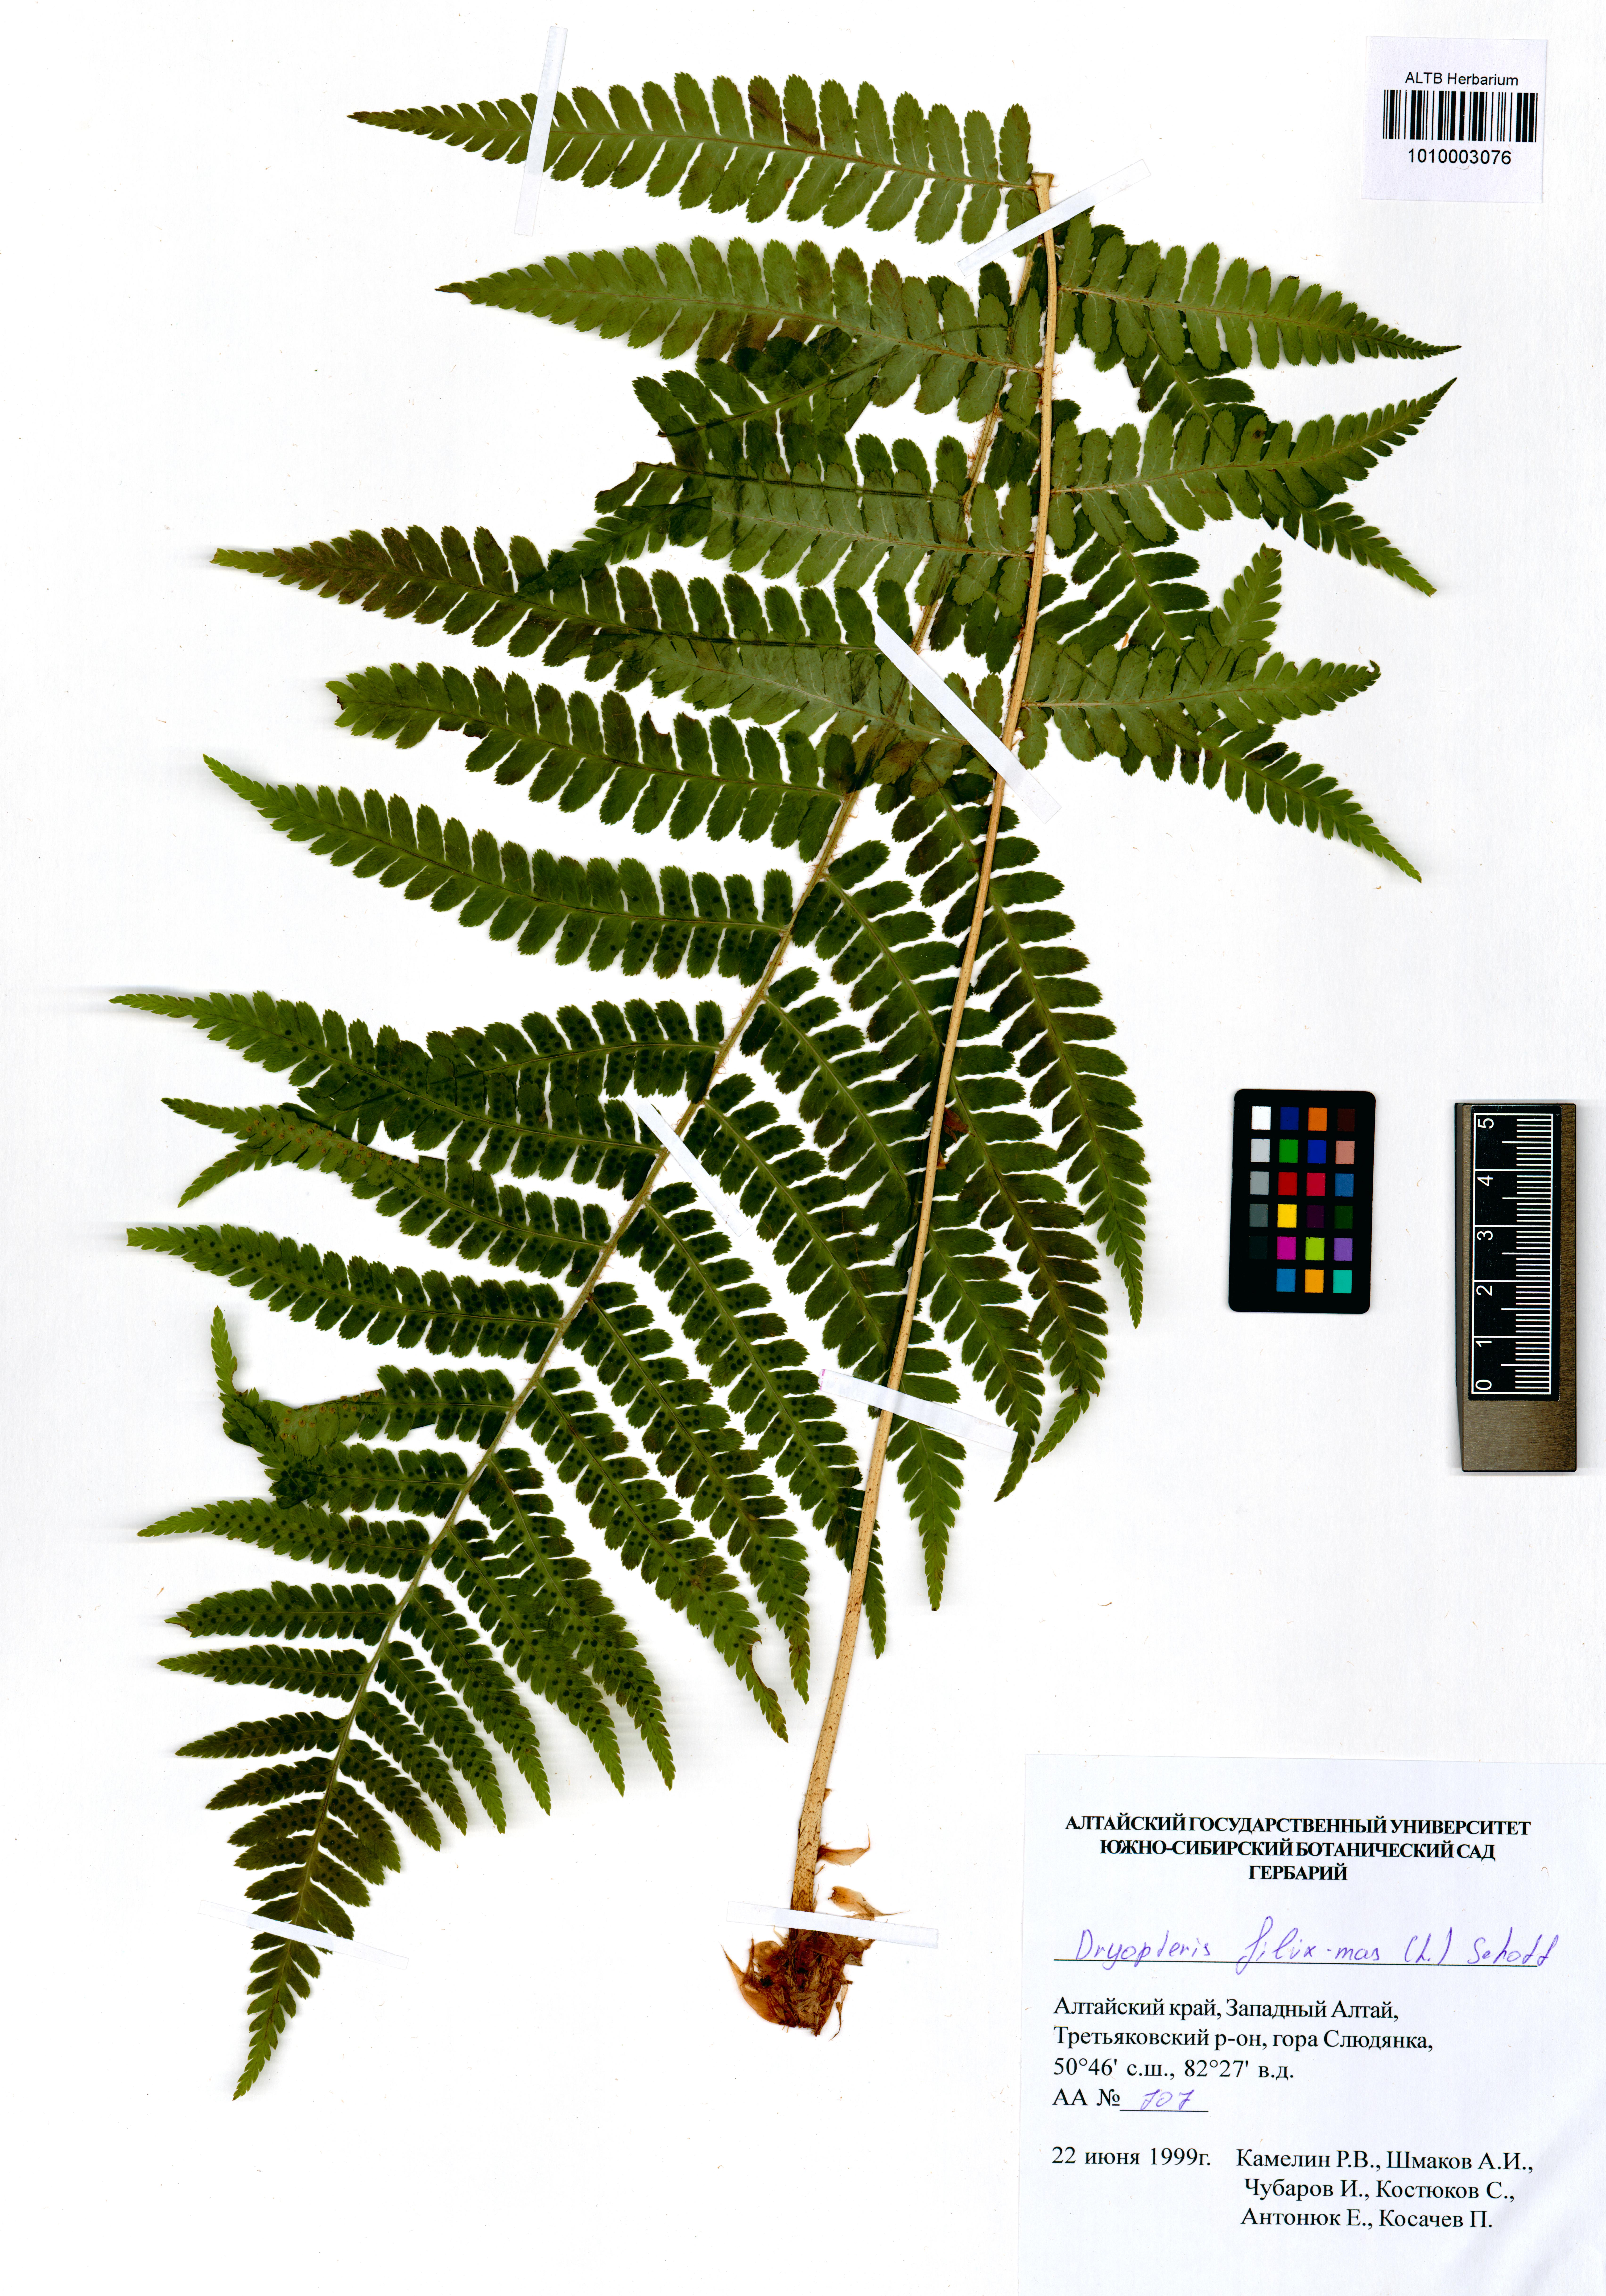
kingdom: Plantae
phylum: Tracheophyta
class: Polypodiopsida
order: Polypodiales
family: Dryopteridaceae
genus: Dryopteris
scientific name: Dryopteris filix-mas
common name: Male fern
